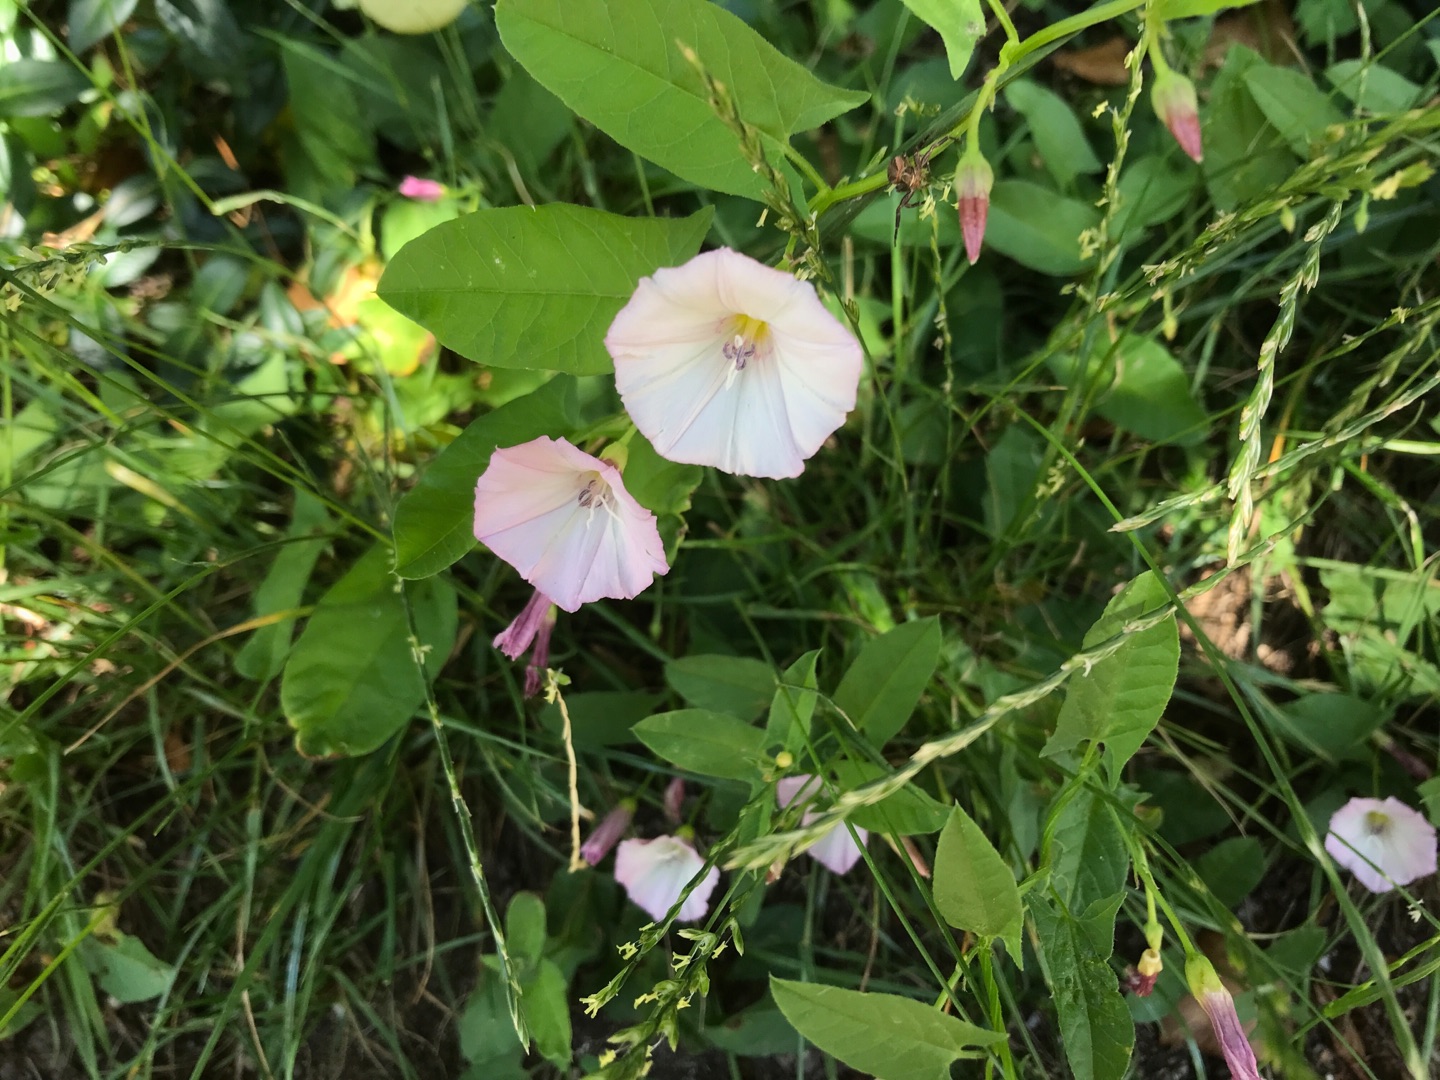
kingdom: Plantae
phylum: Tracheophyta
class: Magnoliopsida
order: Solanales
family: Convolvulaceae
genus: Convolvulus
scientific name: Convolvulus arvensis
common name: Ager-snerle
